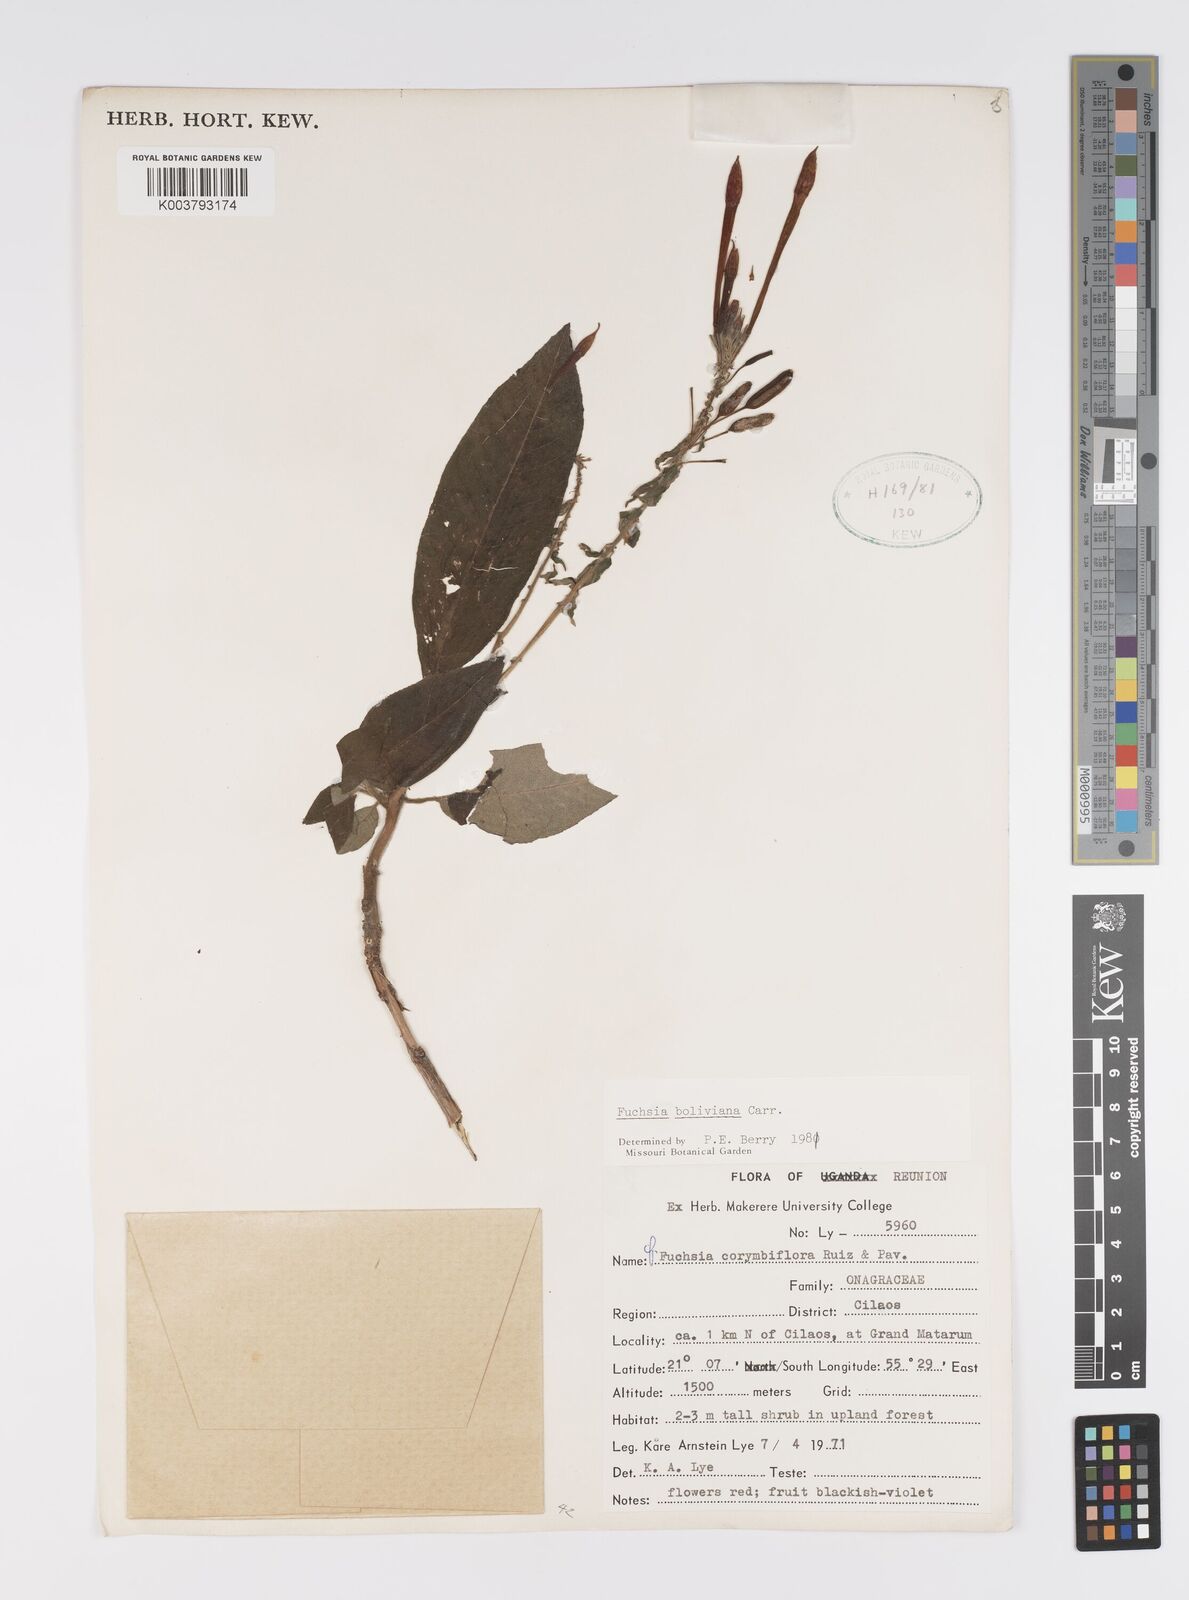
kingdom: Plantae
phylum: Tracheophyta
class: Magnoliopsida
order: Myrtales
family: Onagraceae
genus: Fuchsia
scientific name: Fuchsia boliviana
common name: Bolivian fuchsia
